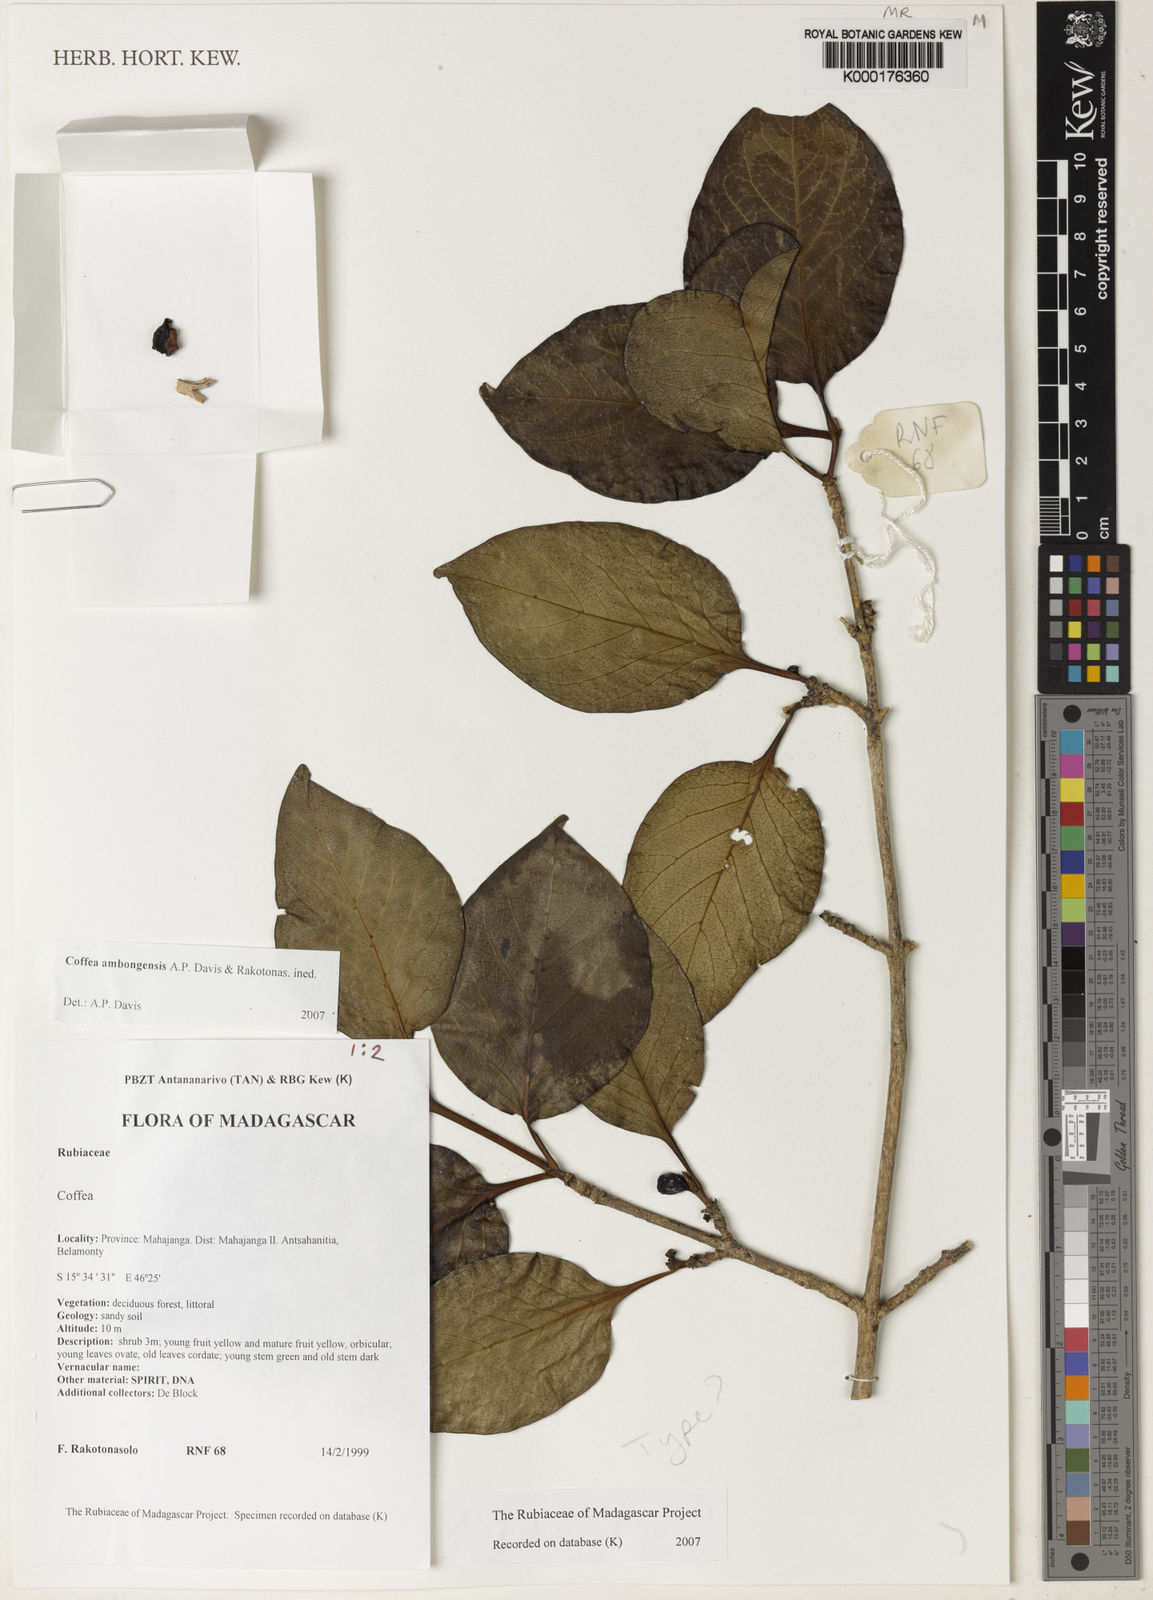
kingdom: Plantae
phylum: Tracheophyta
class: Magnoliopsida
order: Gentianales
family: Rubiaceae
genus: Coffea
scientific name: Coffea ambongensis
